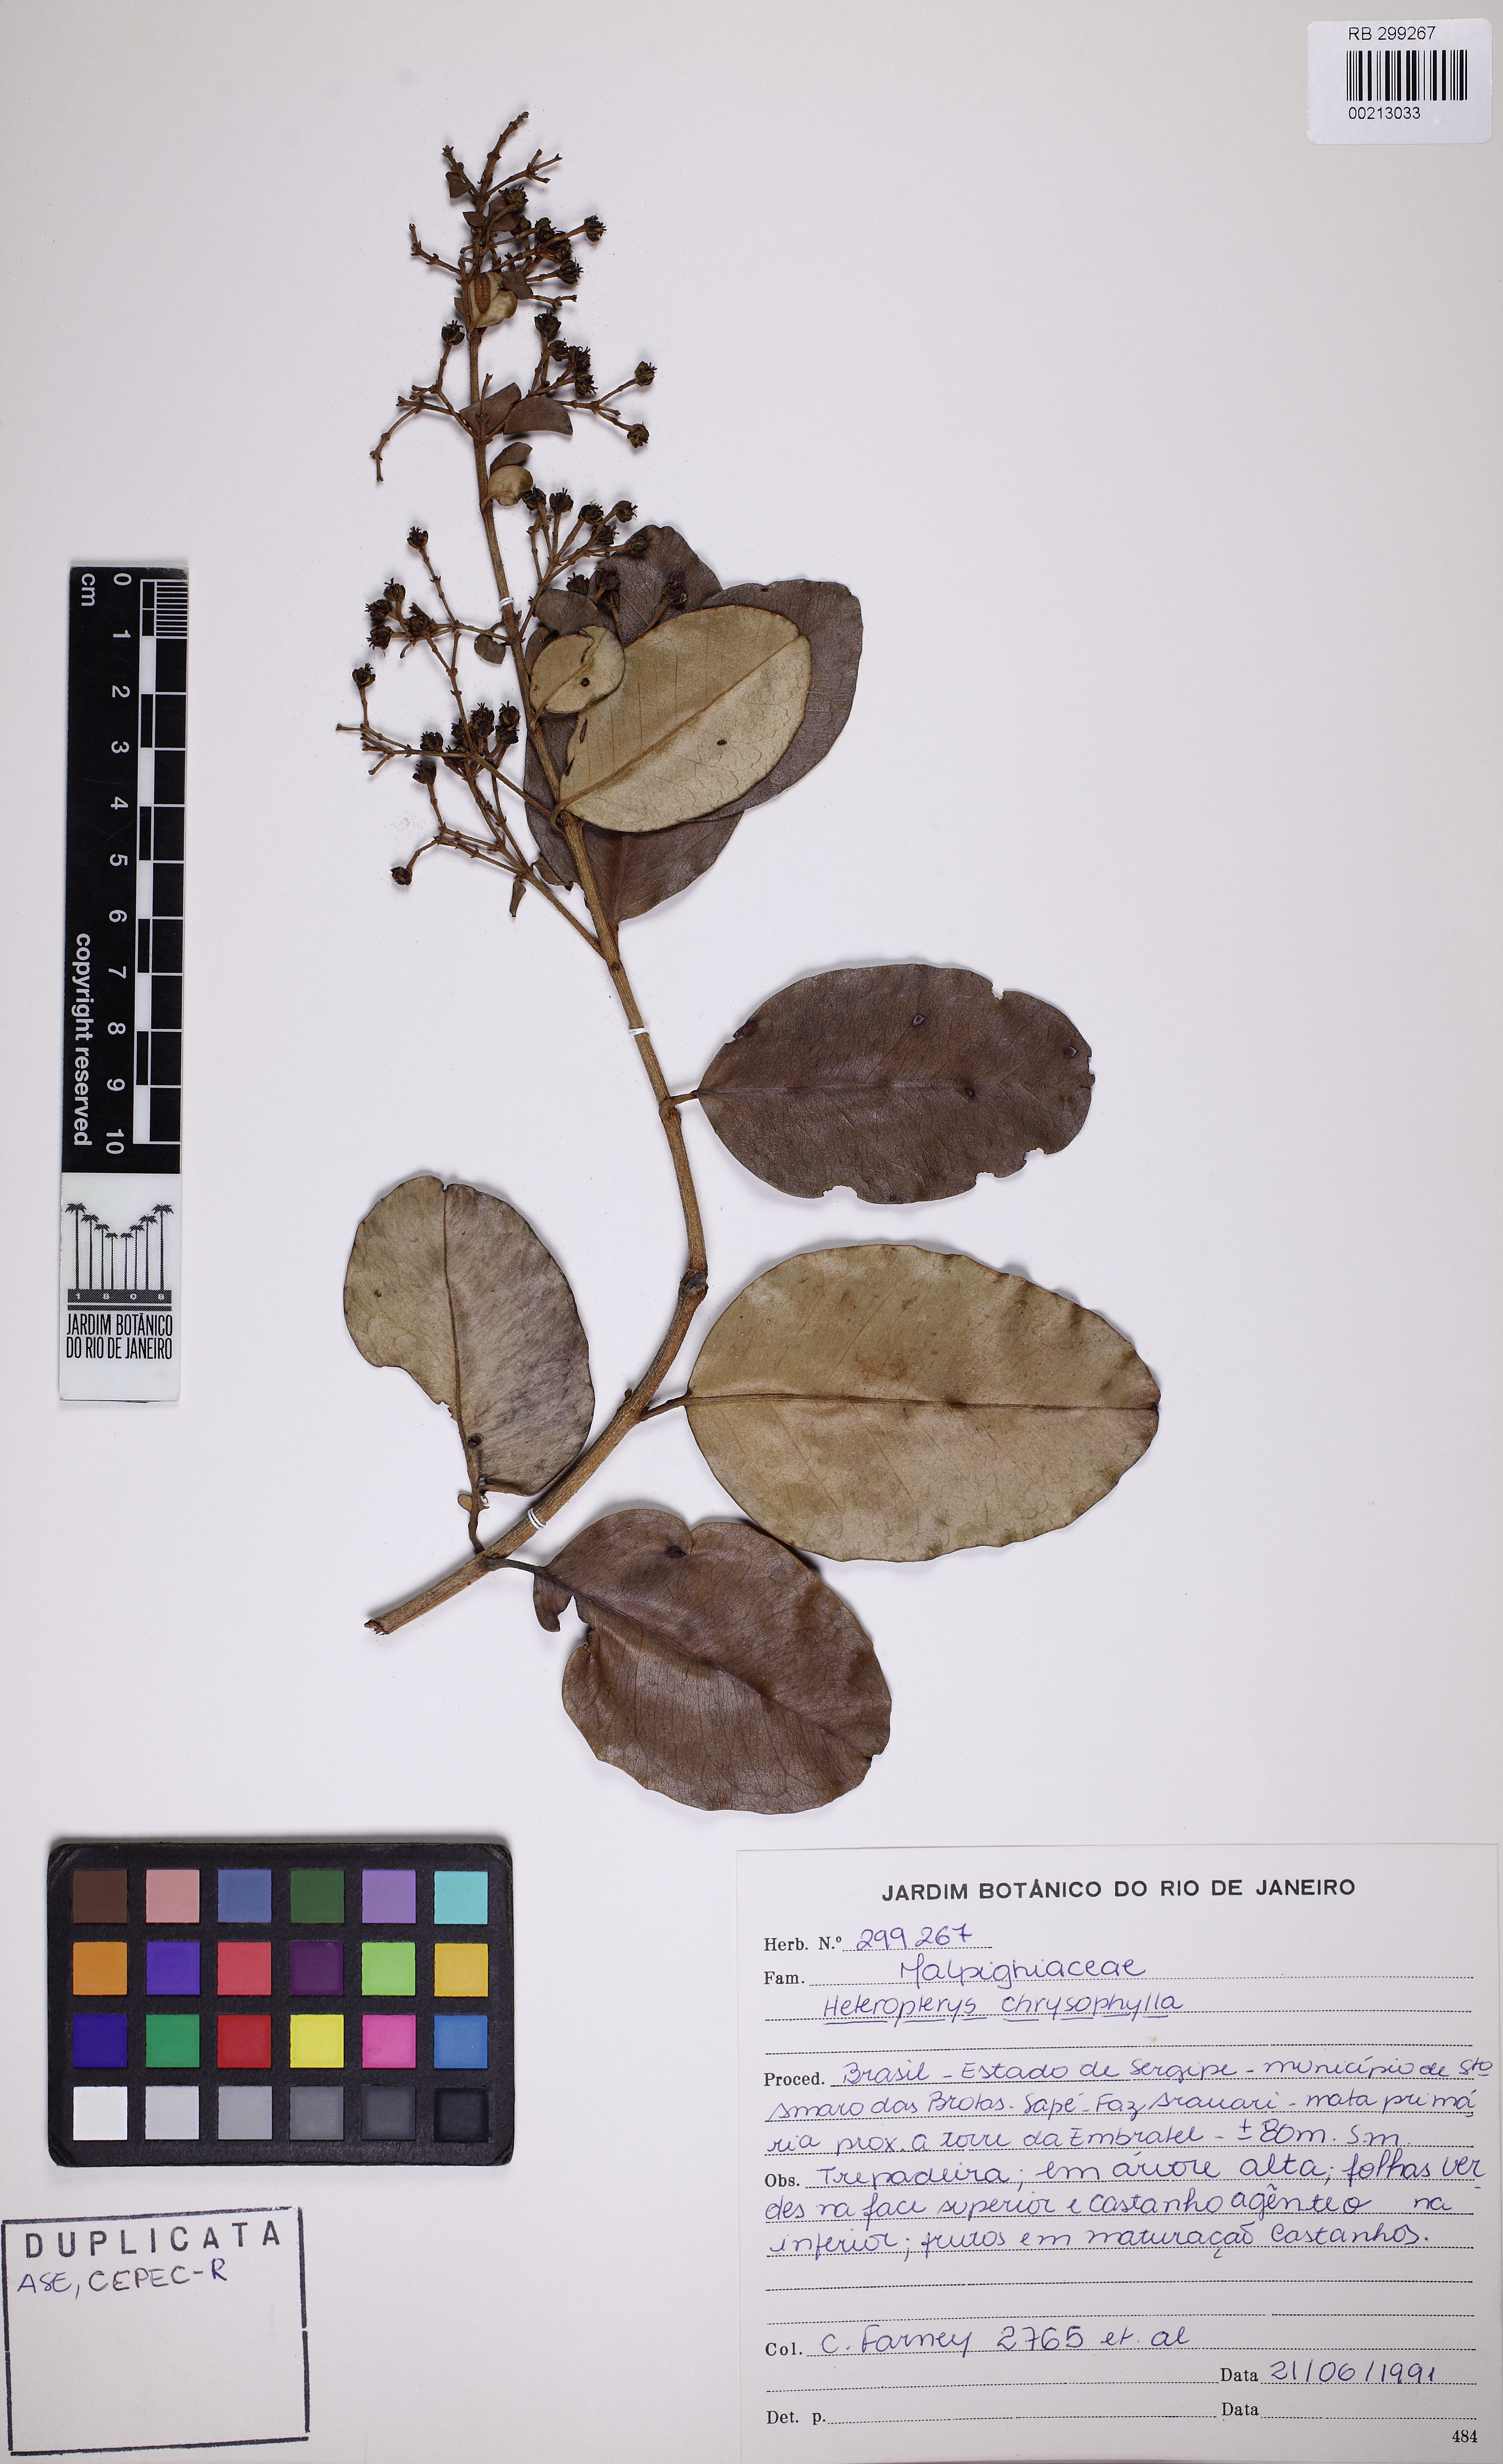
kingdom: Plantae
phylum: Tracheophyta
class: Magnoliopsida
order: Malpighiales
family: Malpighiaceae
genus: Heteropterys
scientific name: Heteropterys coleoptera
